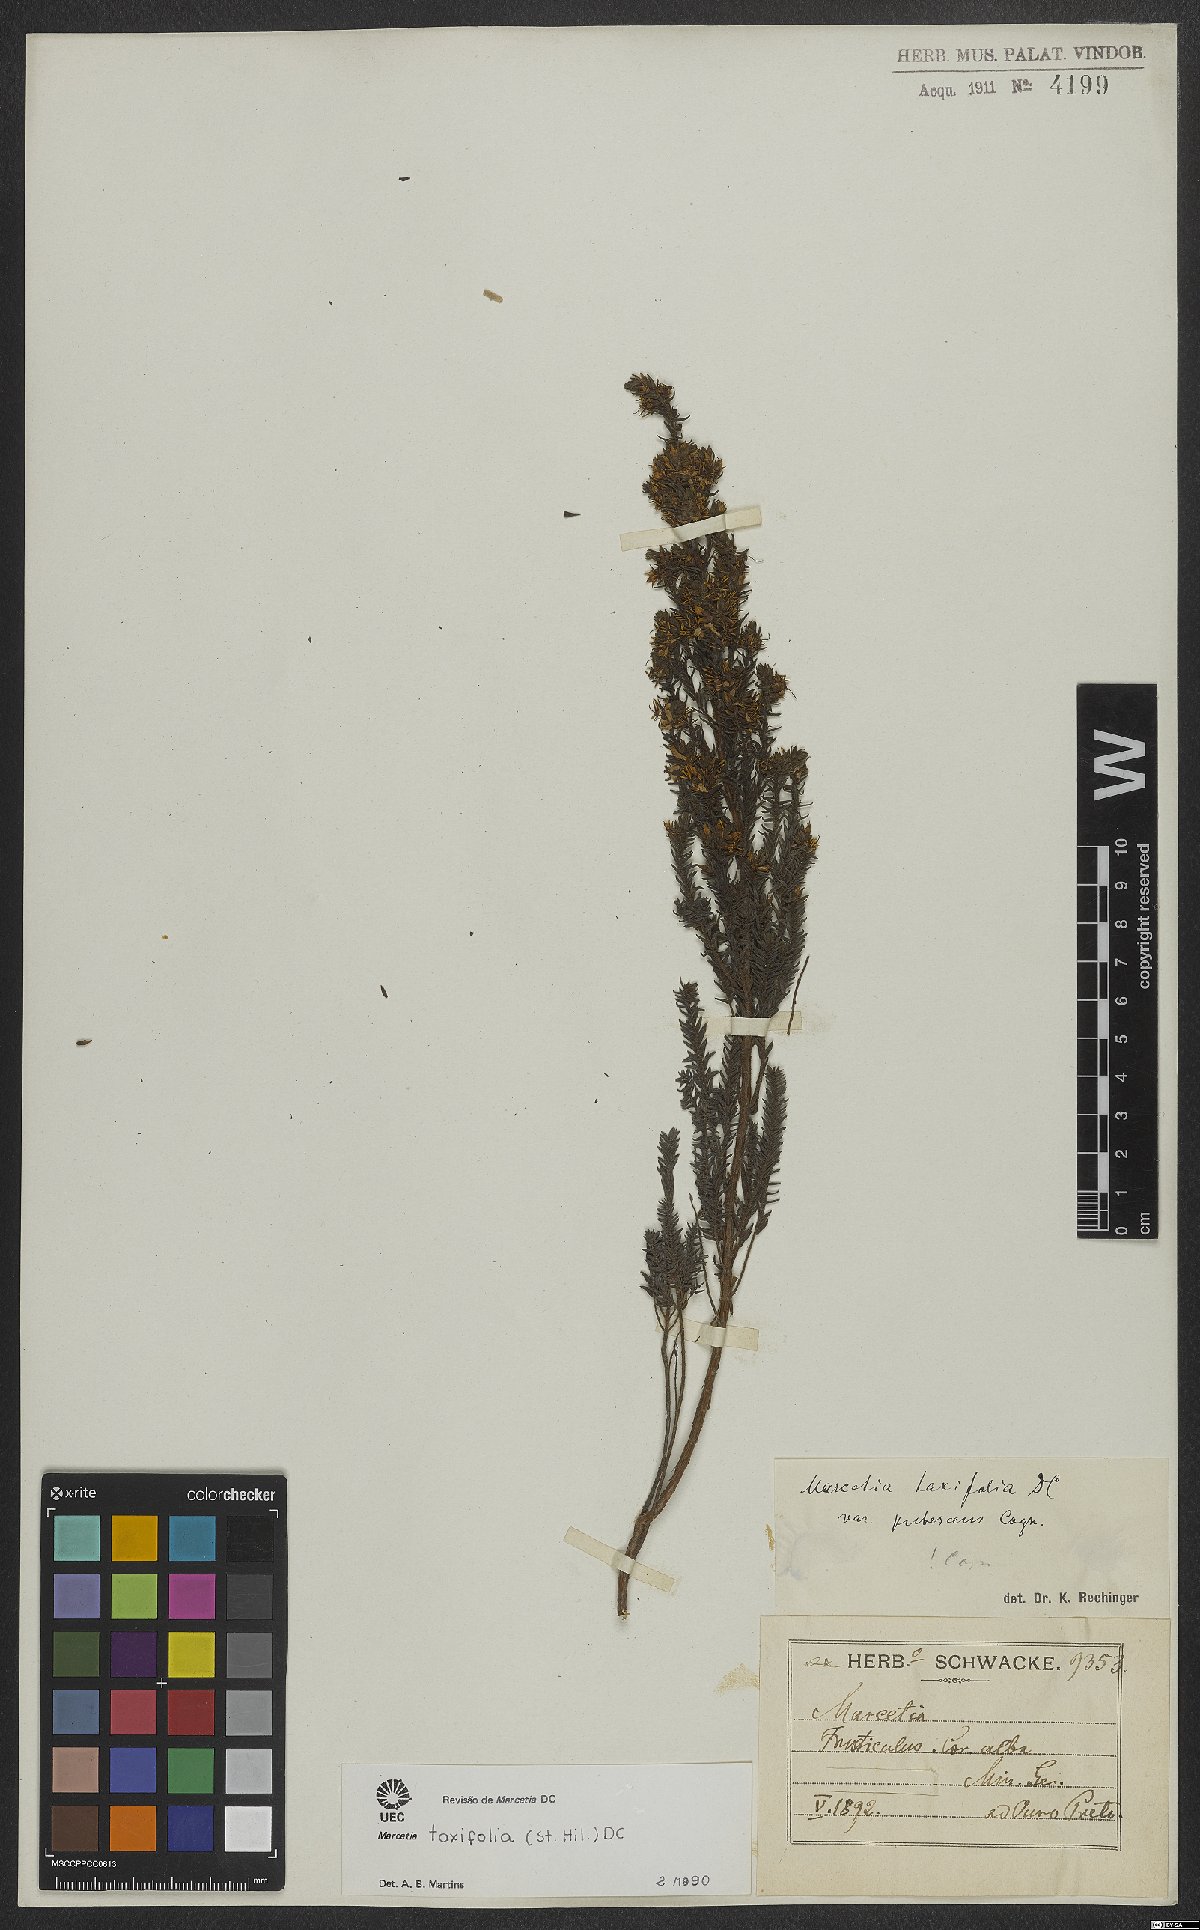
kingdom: Plantae
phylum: Tracheophyta
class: Magnoliopsida
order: Myrtales
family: Melastomataceae
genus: Marcetia
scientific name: Marcetia taxifolia
